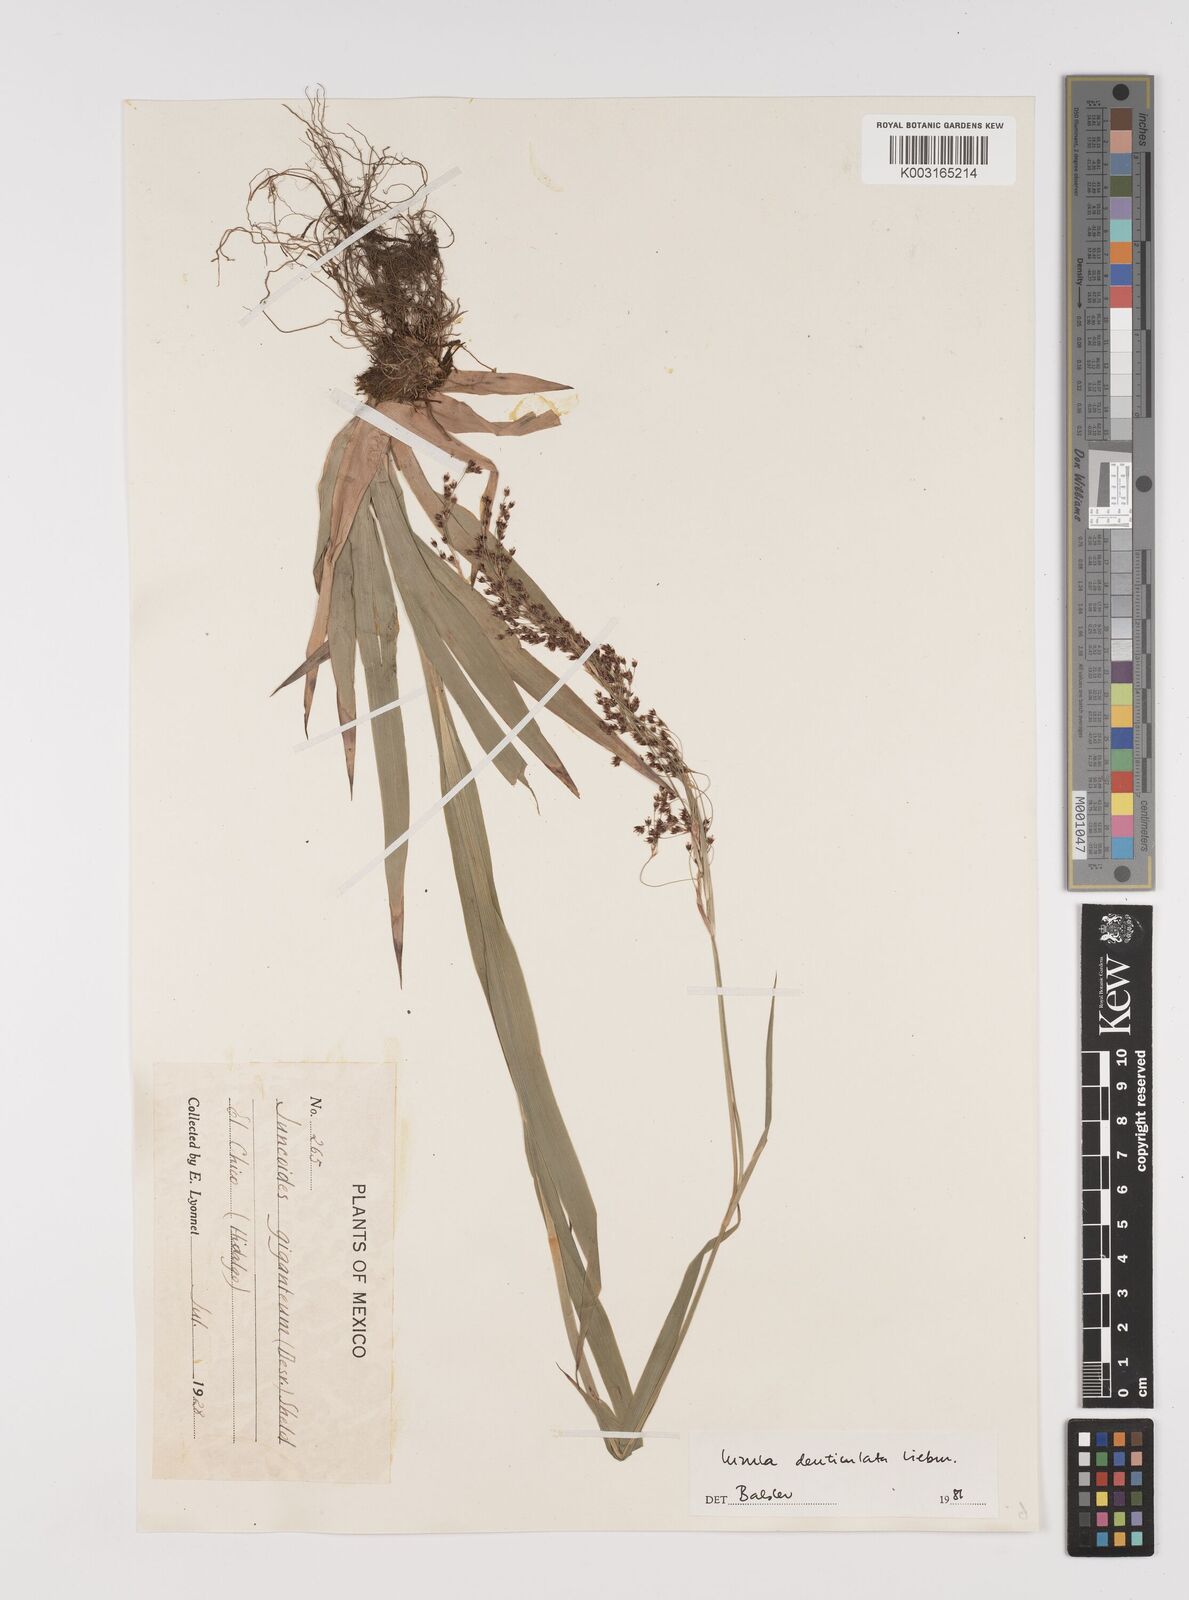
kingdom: Plantae
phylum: Tracheophyta
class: Liliopsida
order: Poales
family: Juncaceae
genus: Luzula
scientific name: Luzula gigantea
